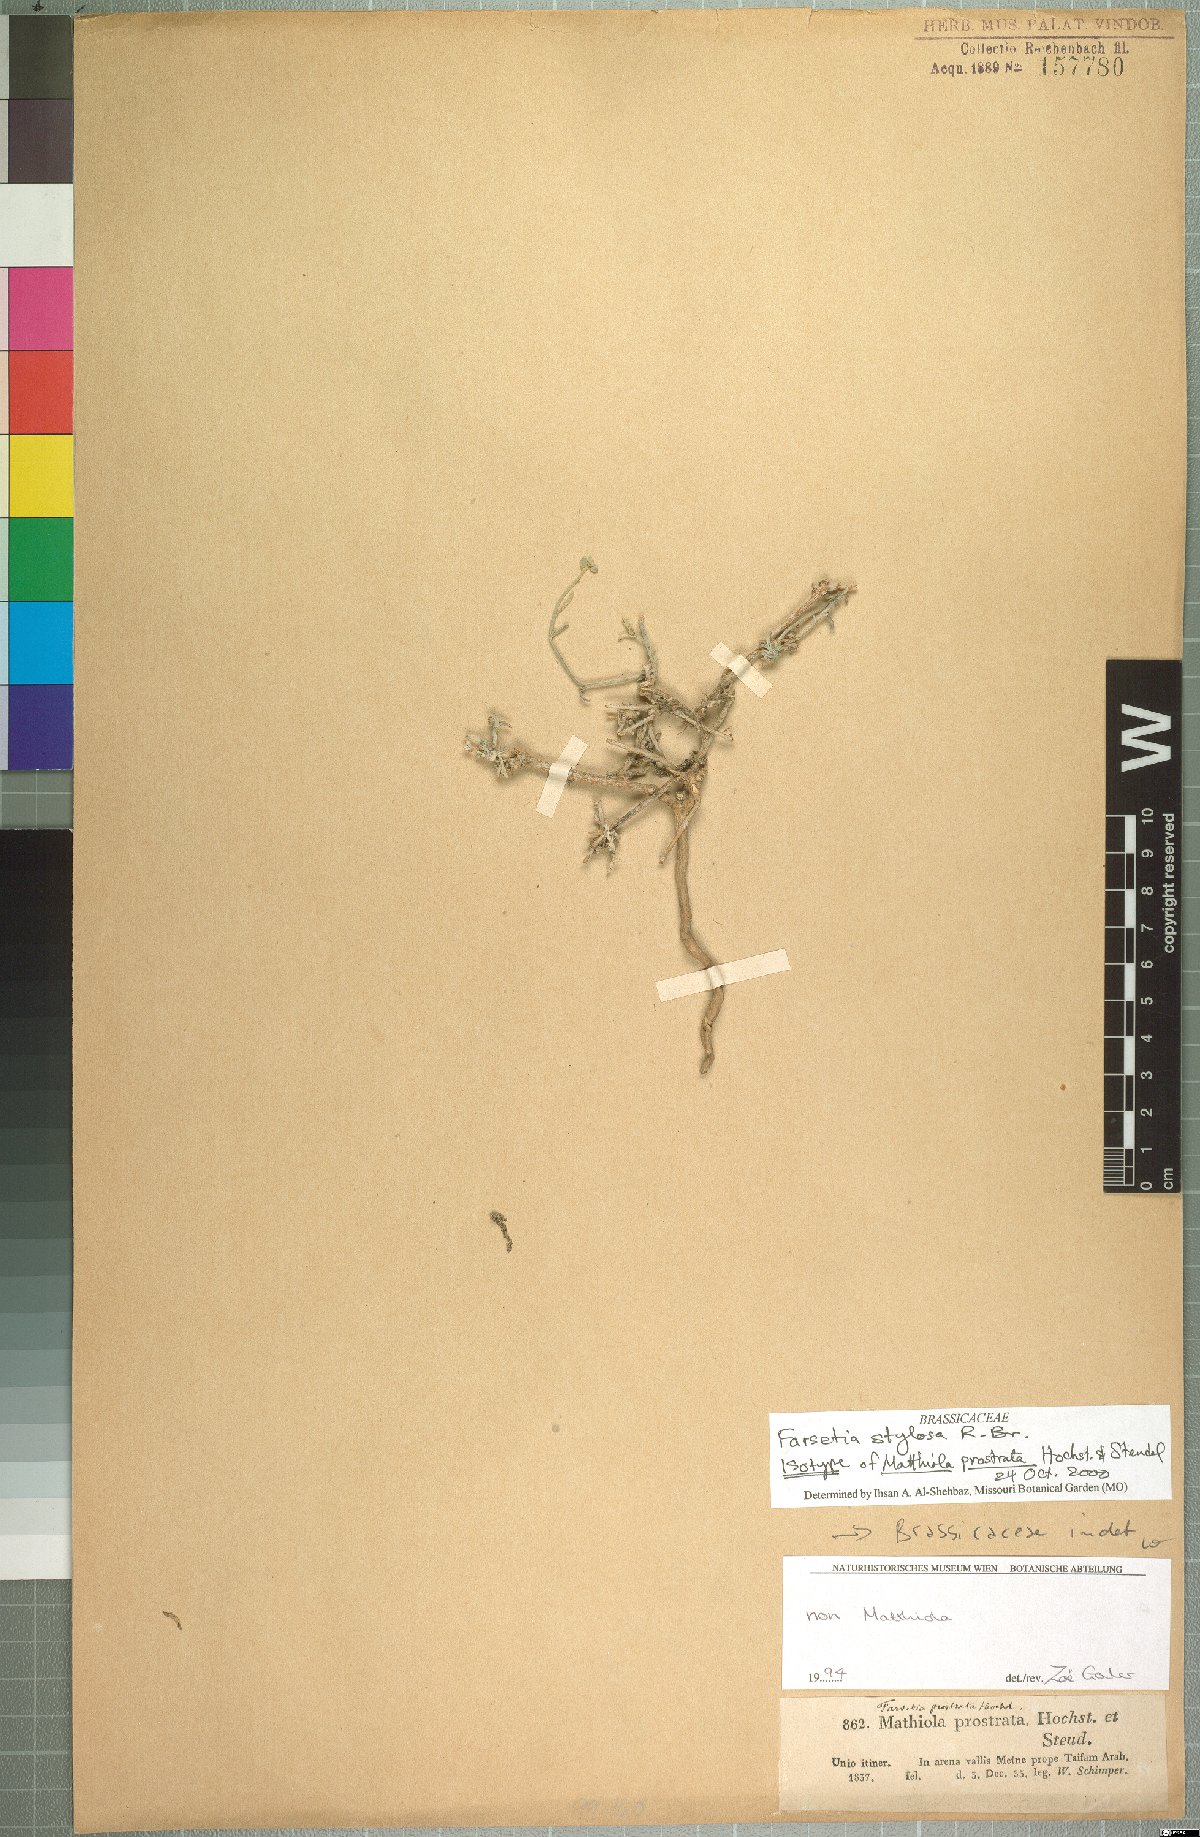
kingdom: Plantae
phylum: Tracheophyta
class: Magnoliopsida
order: Brassicales
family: Brassicaceae
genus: Farsetia
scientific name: Farsetia stylosa
